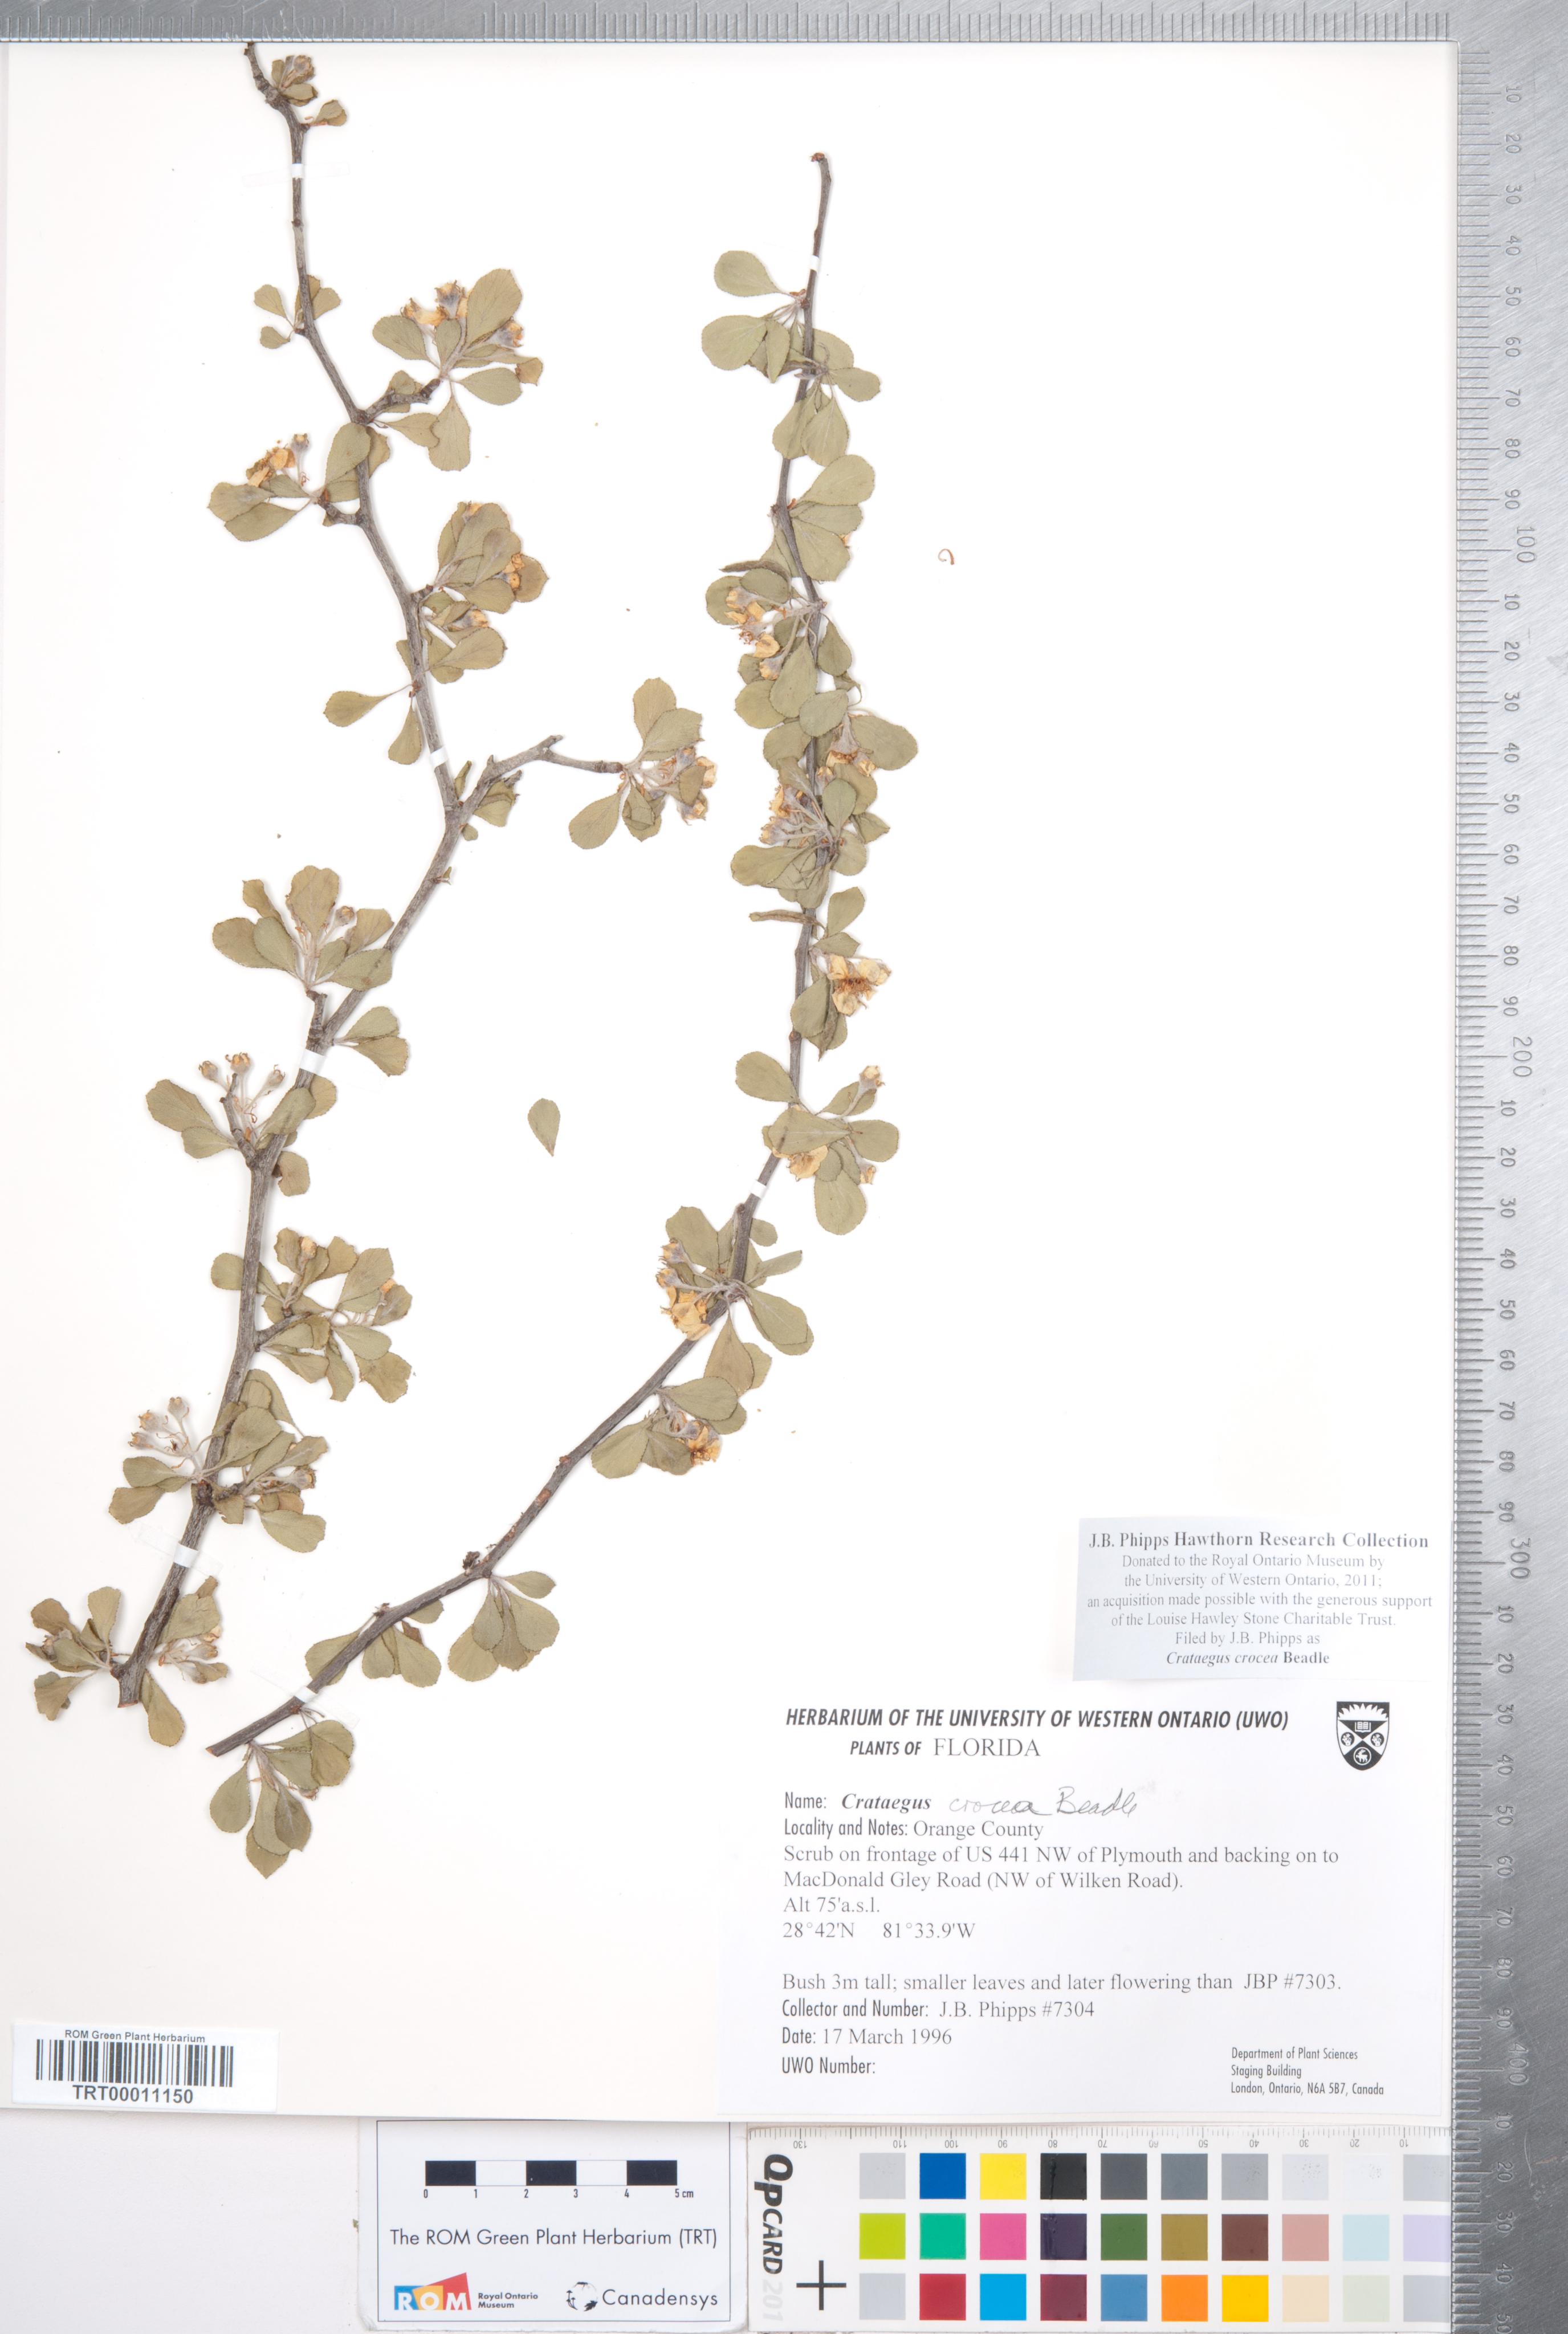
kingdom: Plantae
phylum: Tracheophyta
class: Magnoliopsida
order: Rosales
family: Rosaceae
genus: Crataegus
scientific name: Crataegus lassa
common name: Florida hawthorn
